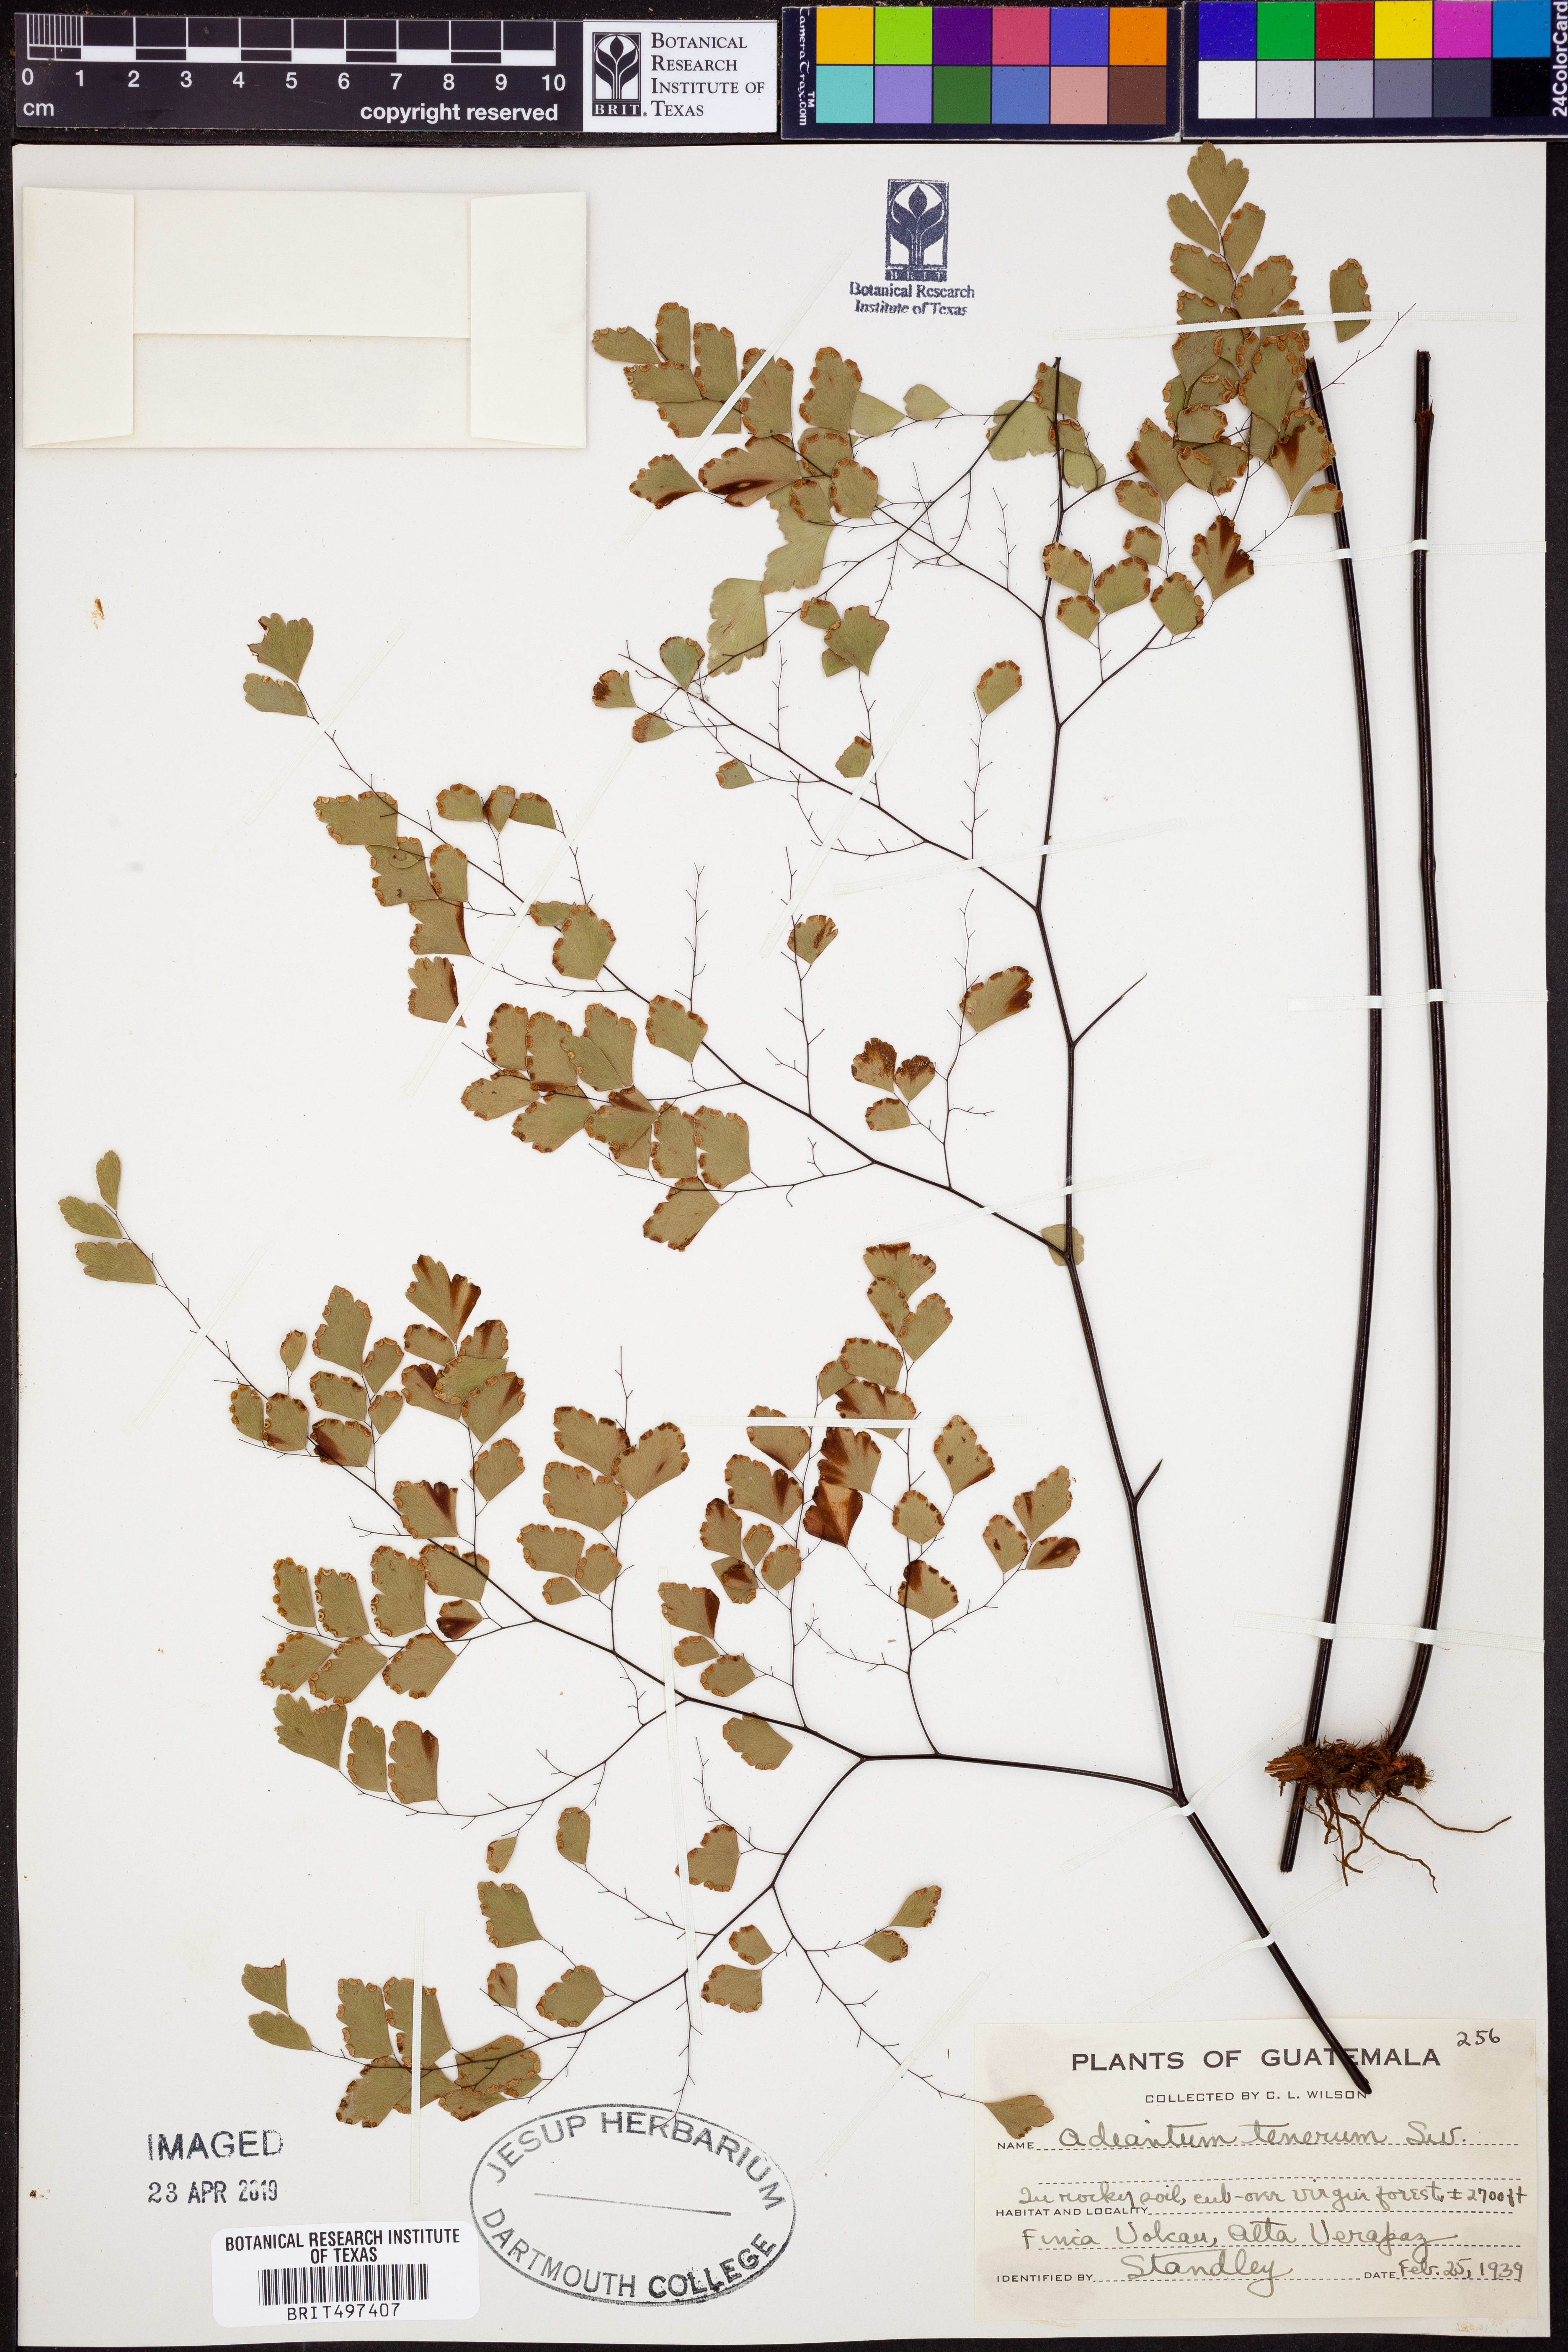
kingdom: Plantae
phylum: Tracheophyta
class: Polypodiopsida
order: Polypodiales
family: Pteridaceae
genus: Adiantum
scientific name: Adiantum tenerum
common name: Fan maidenhair
